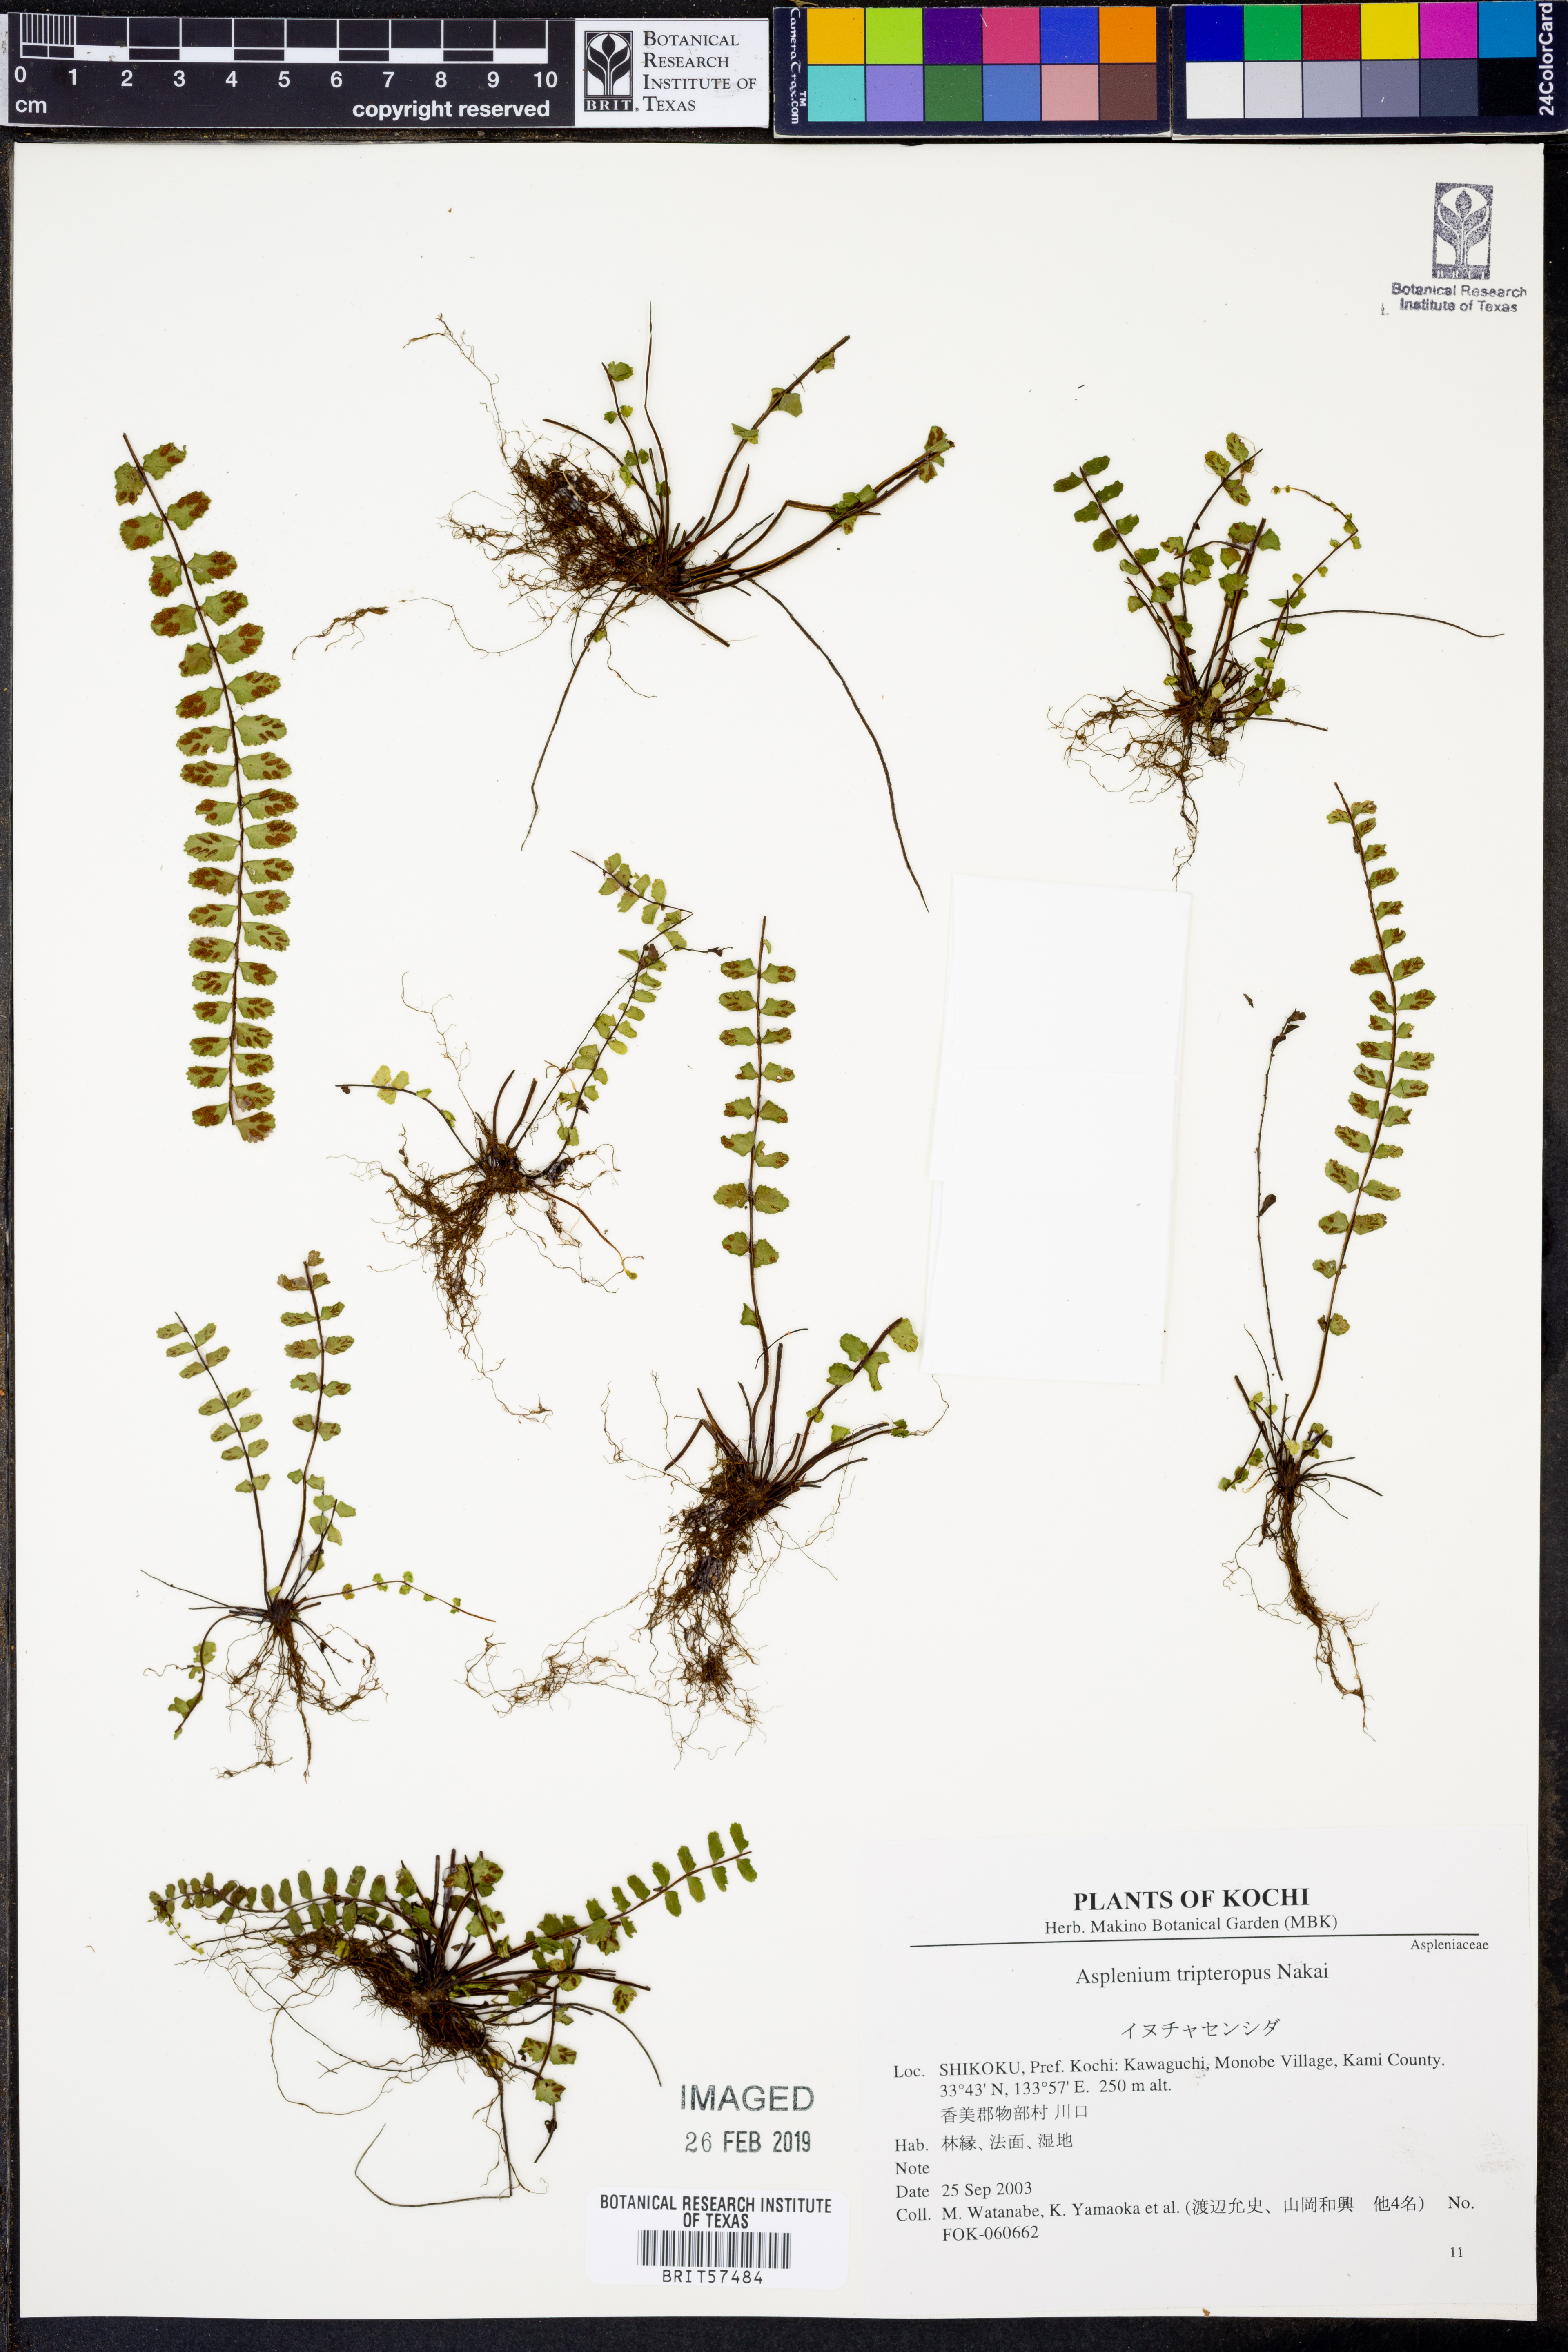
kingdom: Plantae
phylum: Tracheophyta
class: Polypodiopsida
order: Polypodiales
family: Aspleniaceae
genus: Asplenium
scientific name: Asplenium tripteropus
